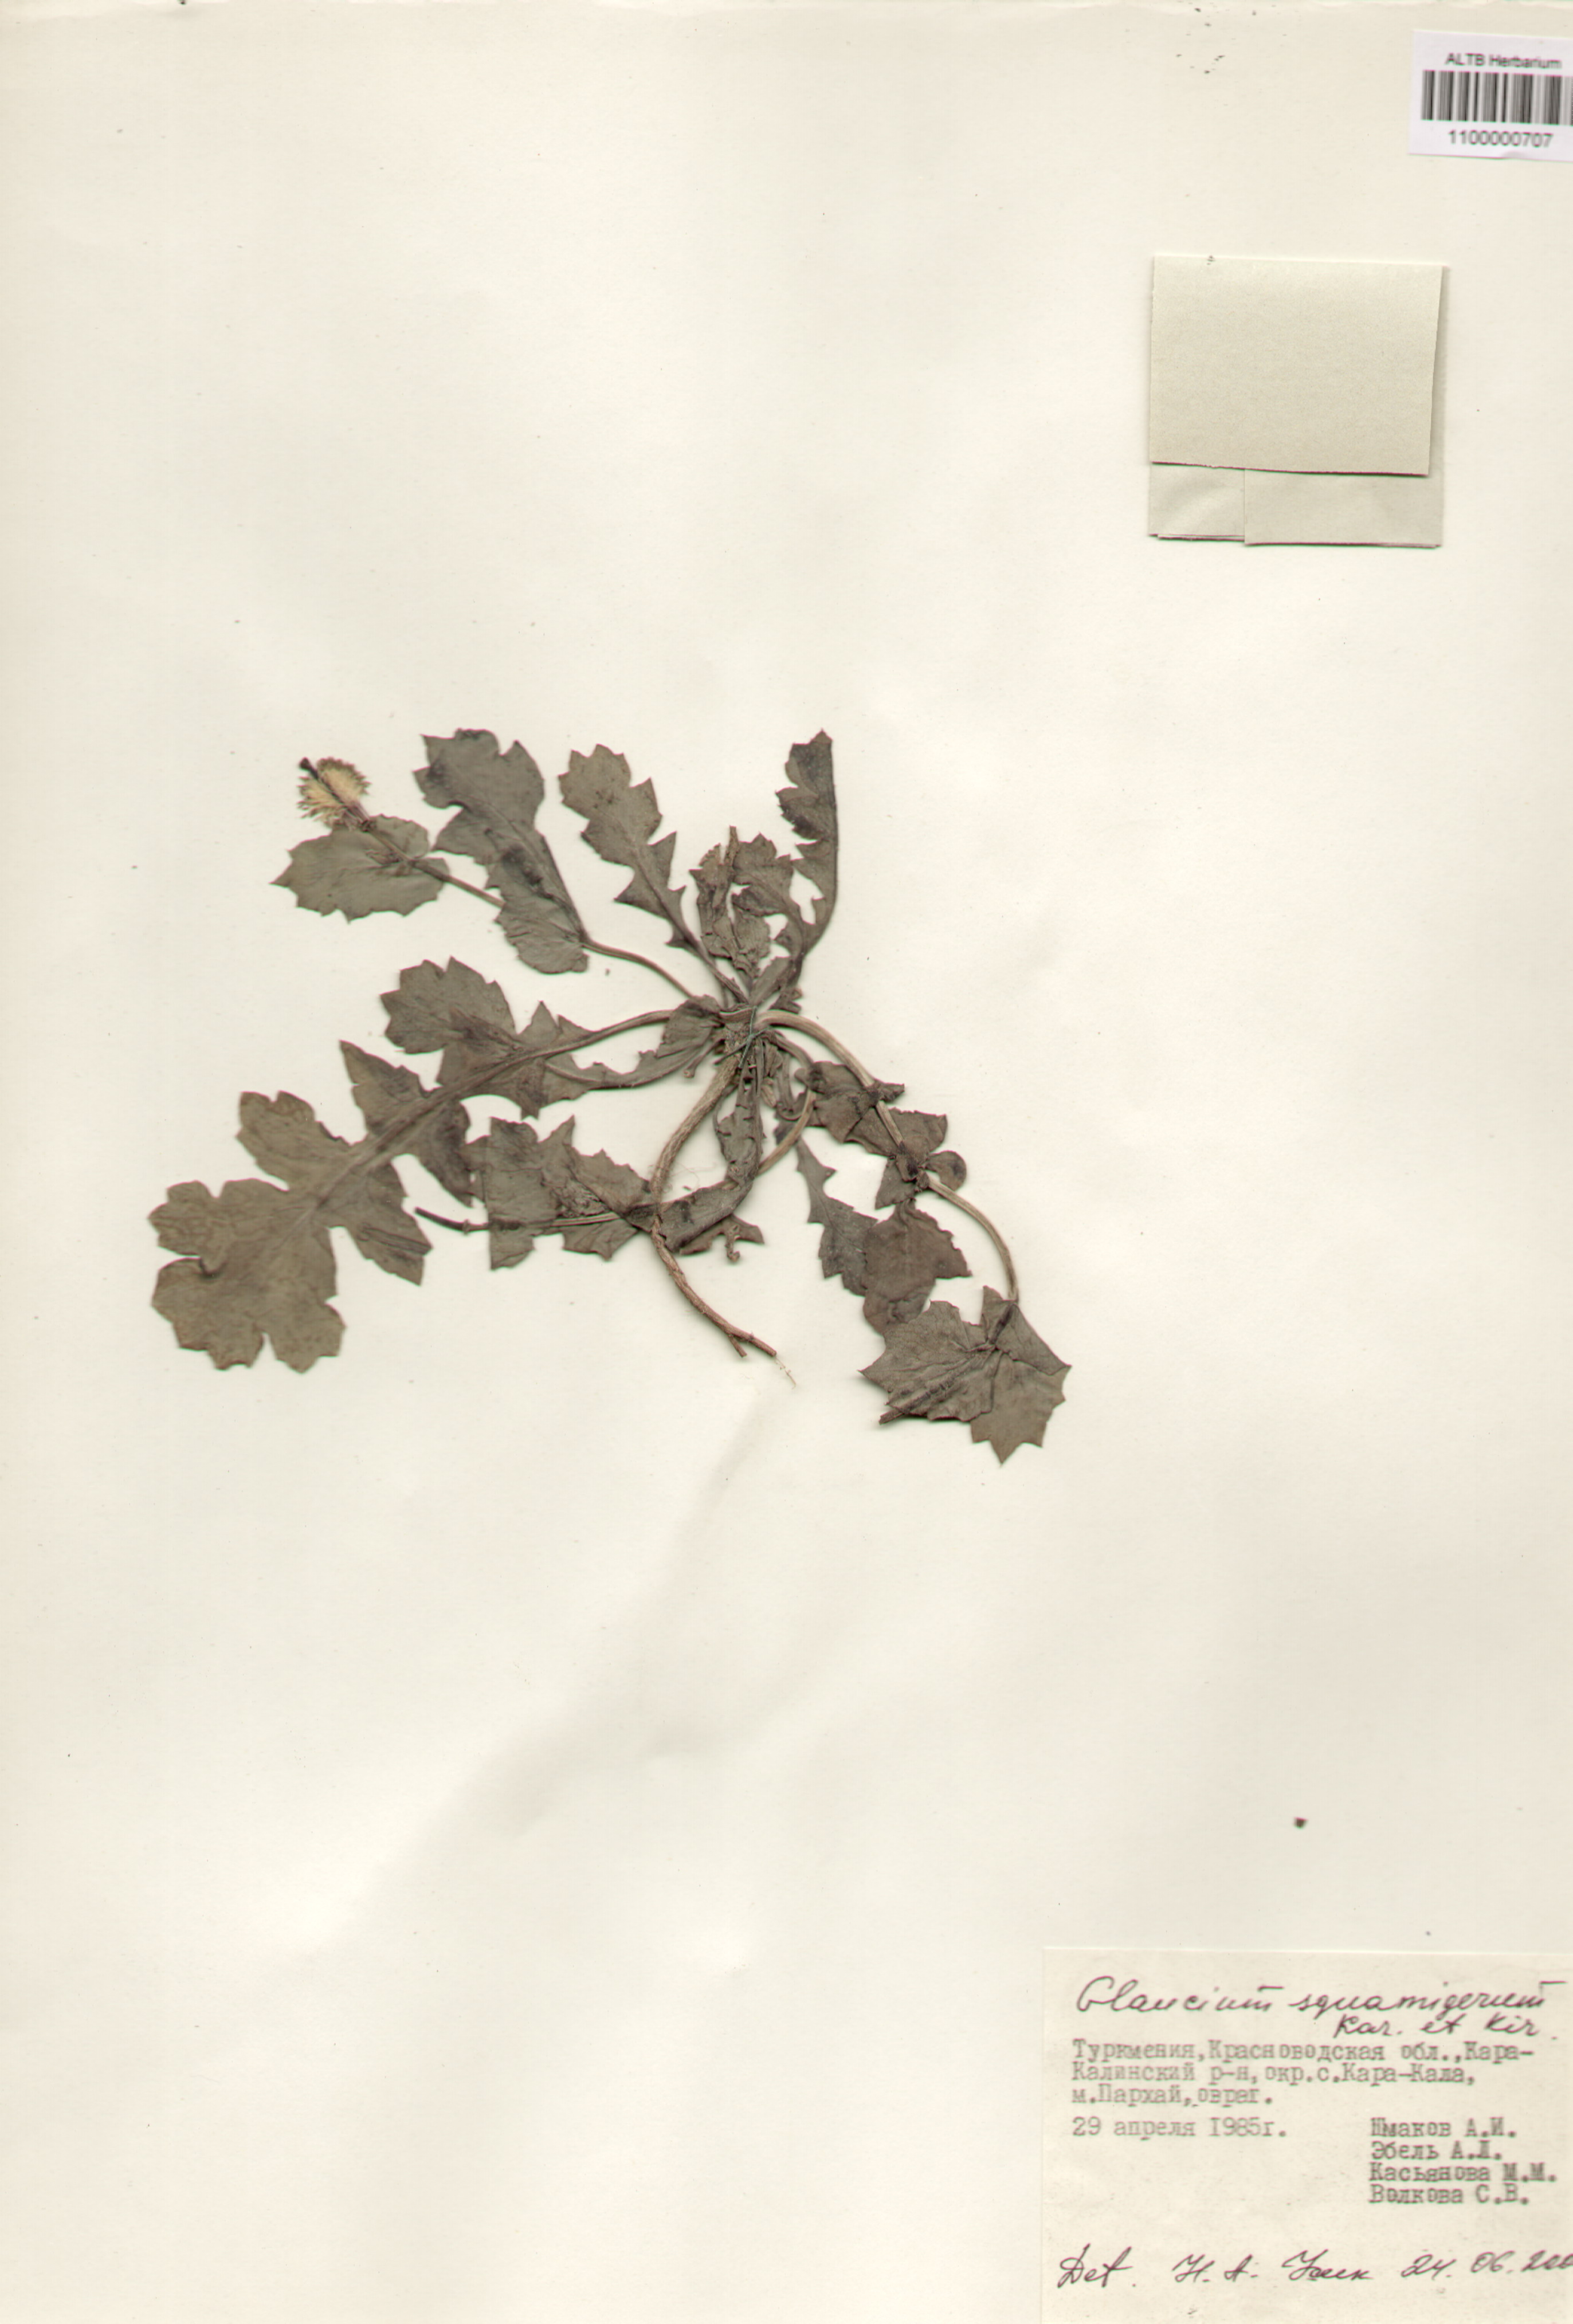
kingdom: Plantae
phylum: Tracheophyta
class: Magnoliopsida
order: Ranunculales
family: Papaveraceae
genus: Glaucium
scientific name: Glaucium squamigerum
